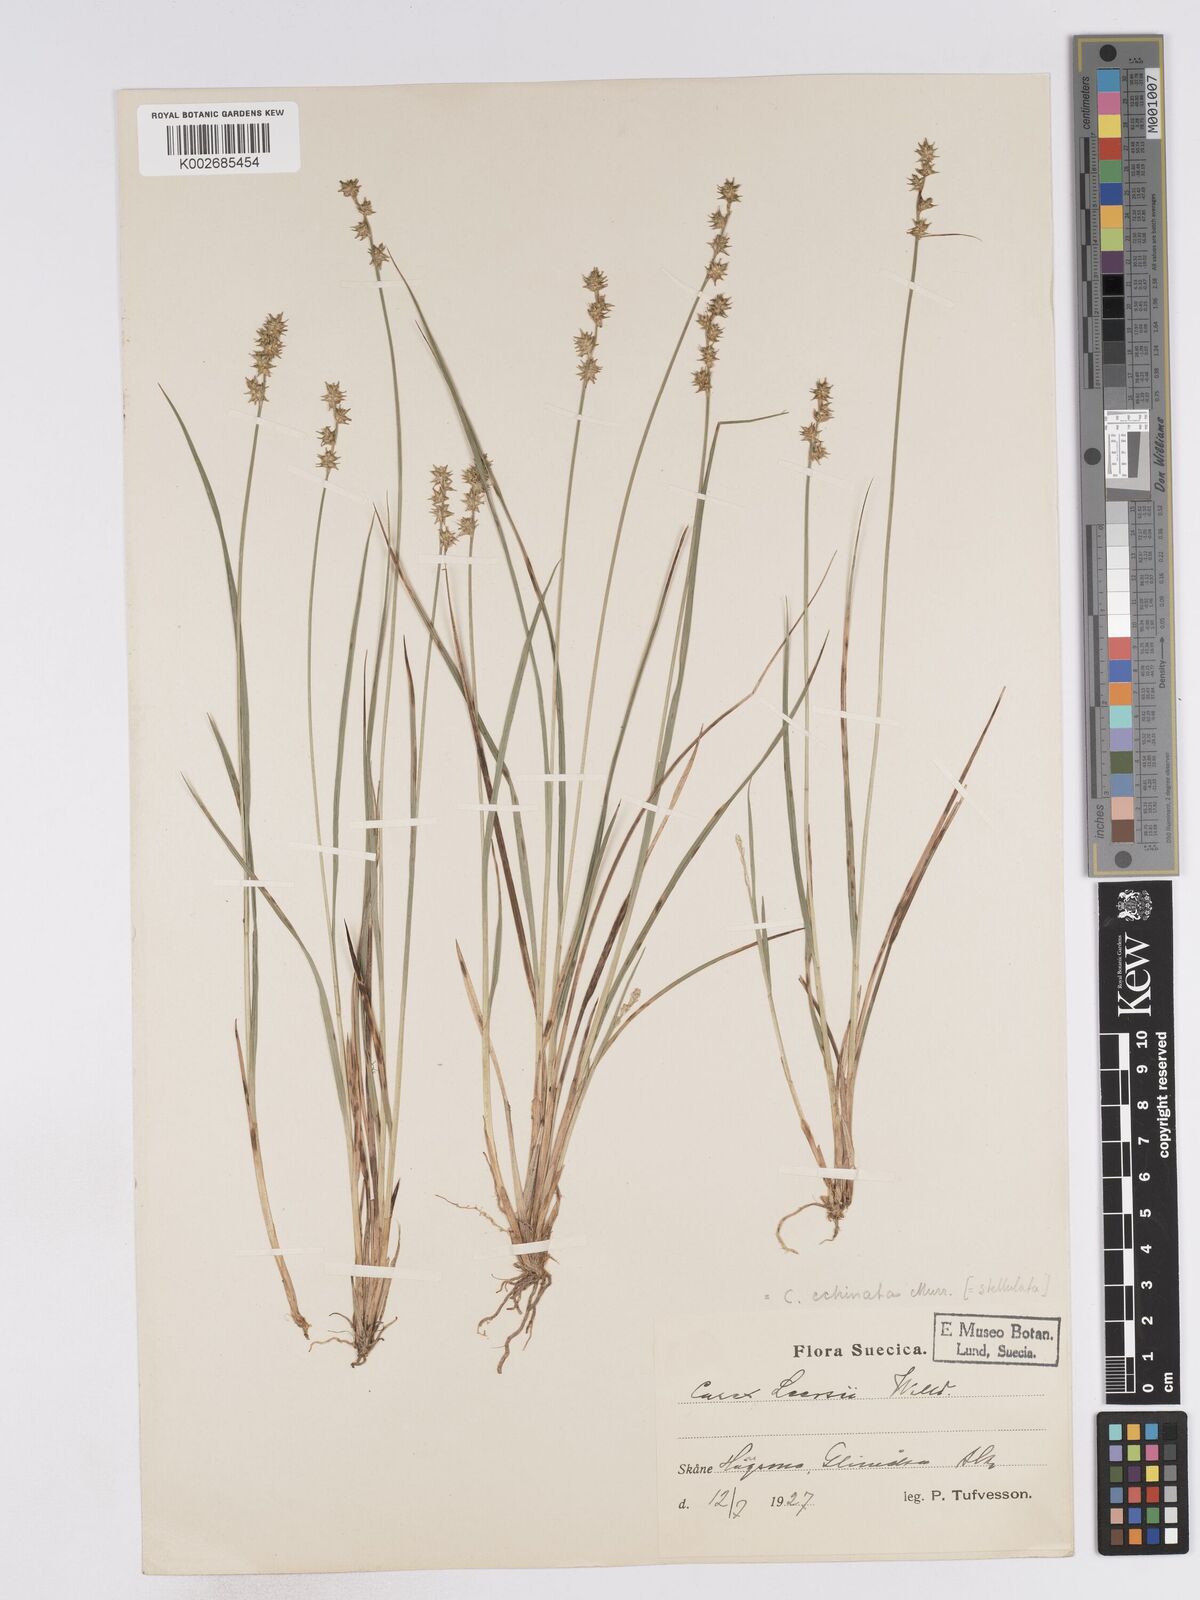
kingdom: Plantae
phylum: Tracheophyta
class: Liliopsida
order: Poales
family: Cyperaceae
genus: Carex
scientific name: Carex echinata
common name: Star sedge
